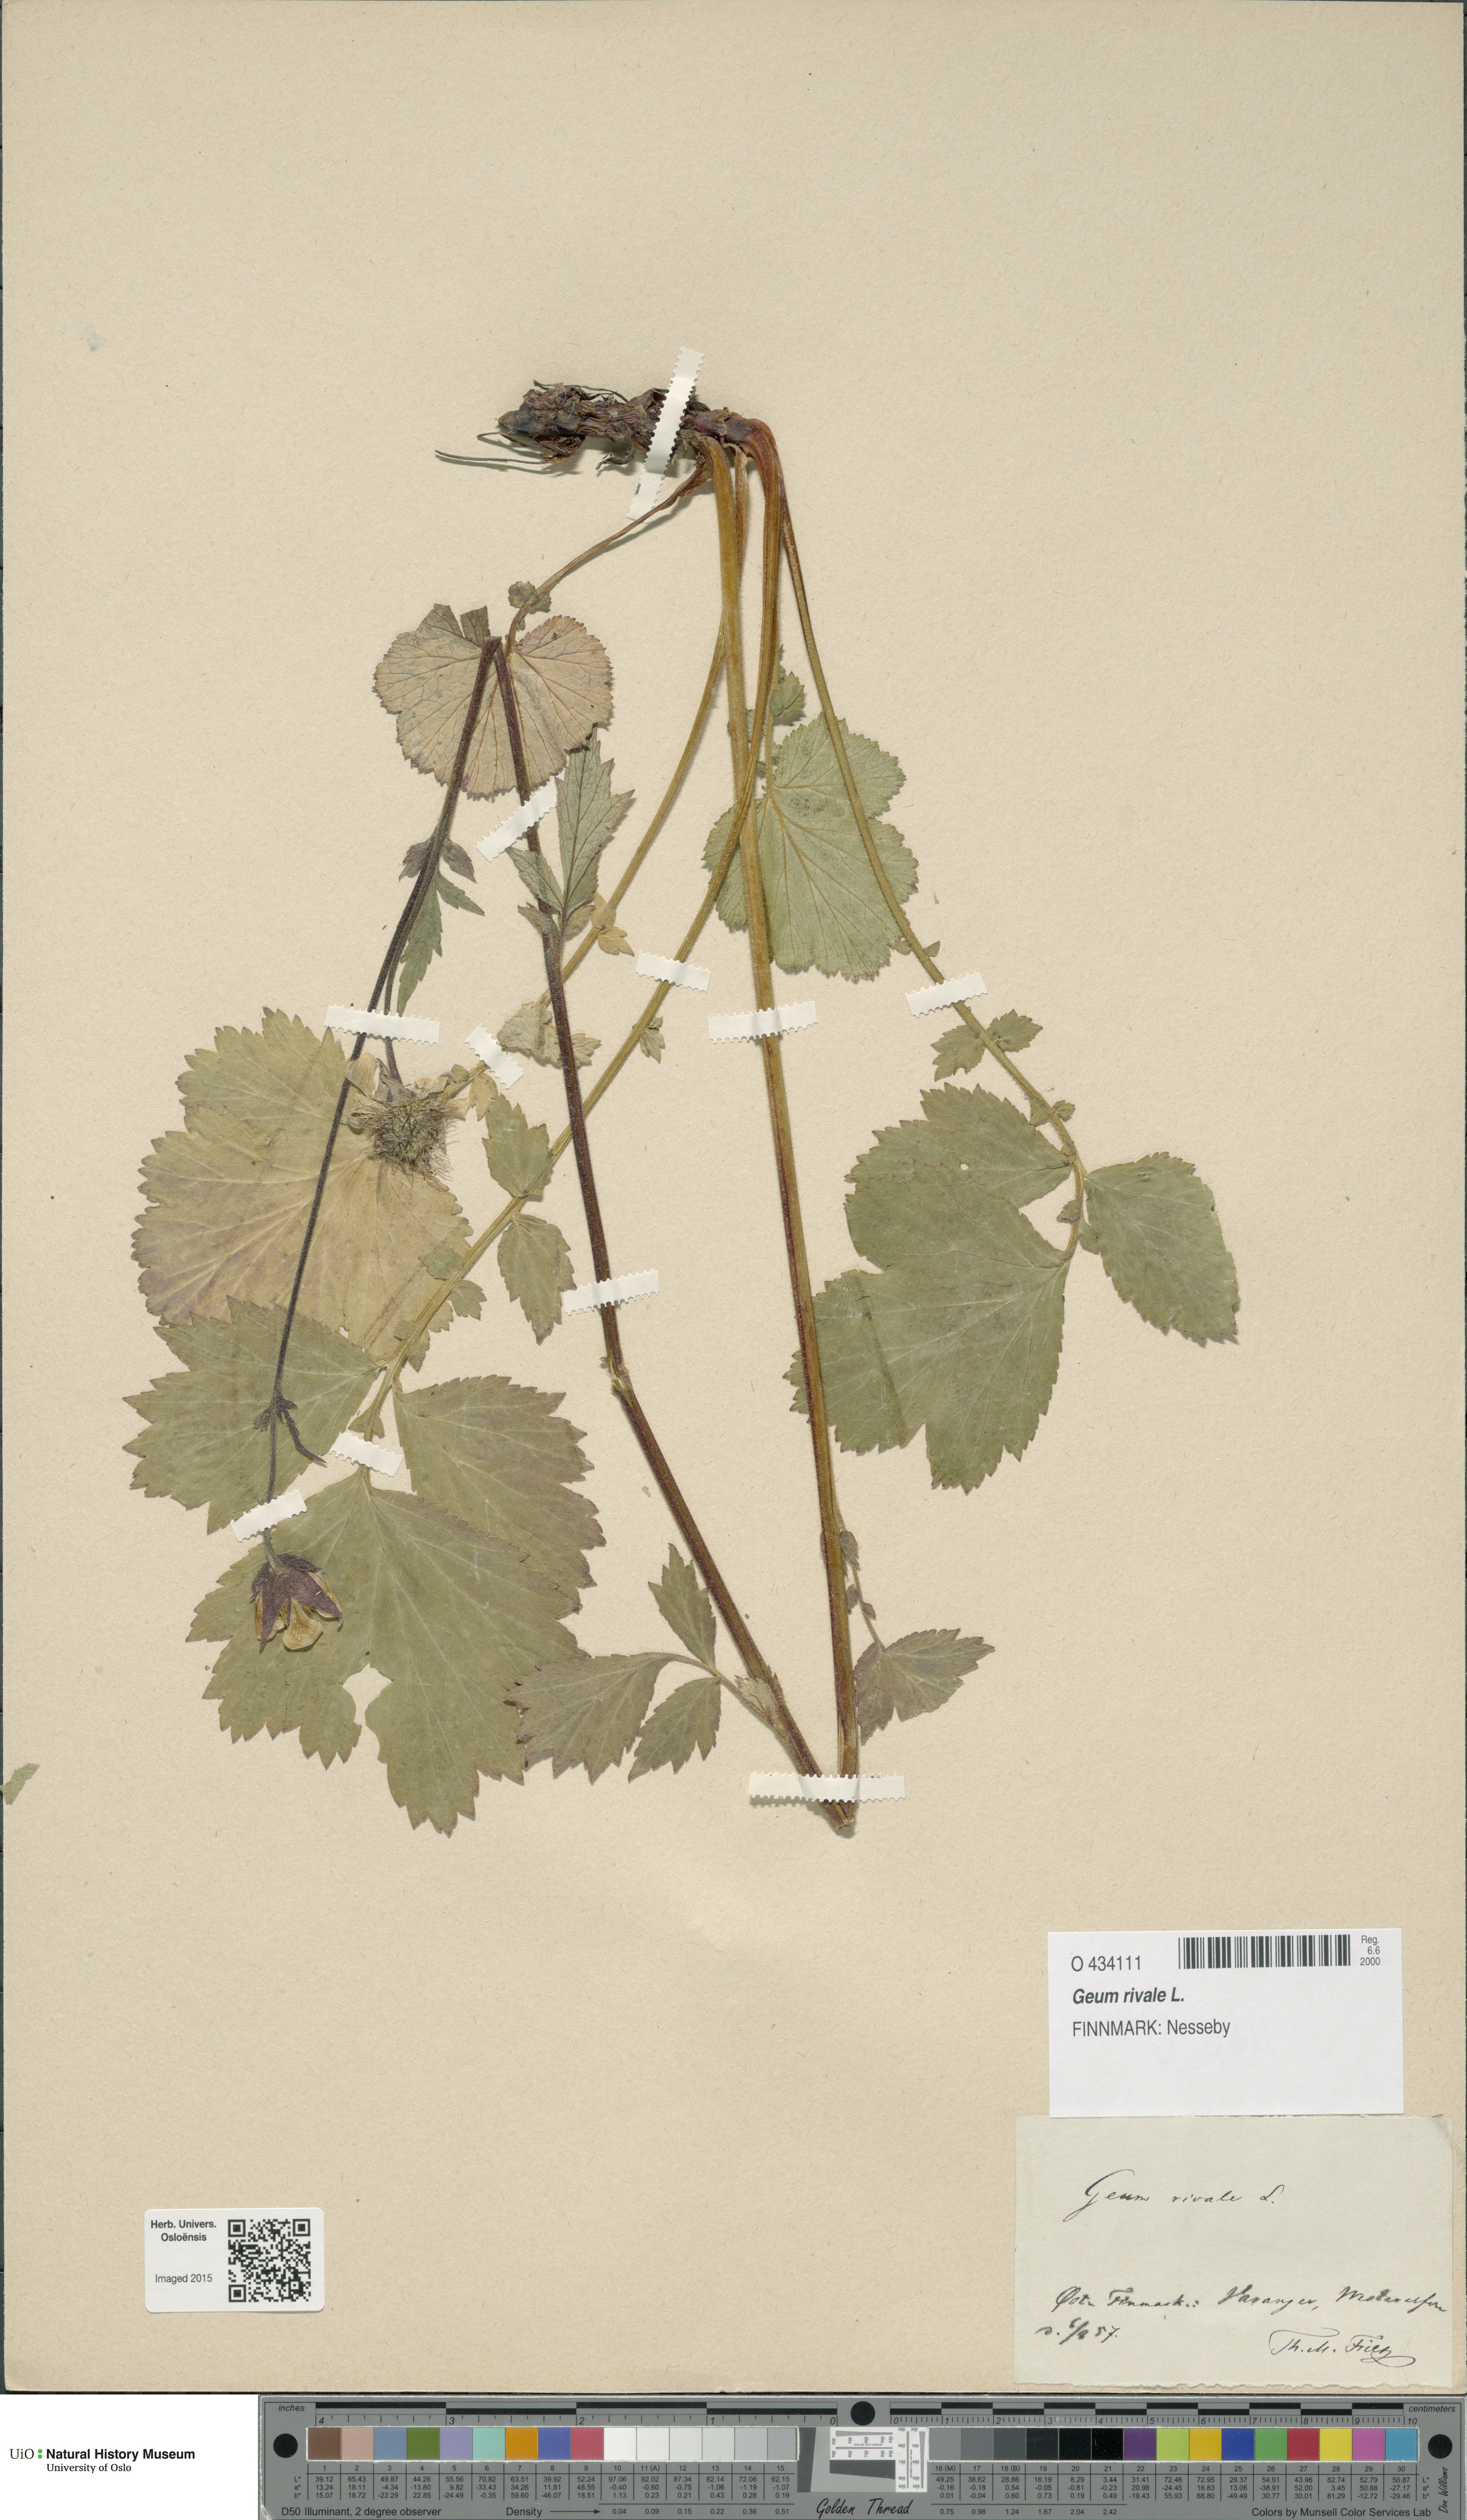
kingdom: Plantae
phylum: Tracheophyta
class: Magnoliopsida
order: Rosales
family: Rosaceae
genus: Geum
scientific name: Geum rivale
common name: Water avens
